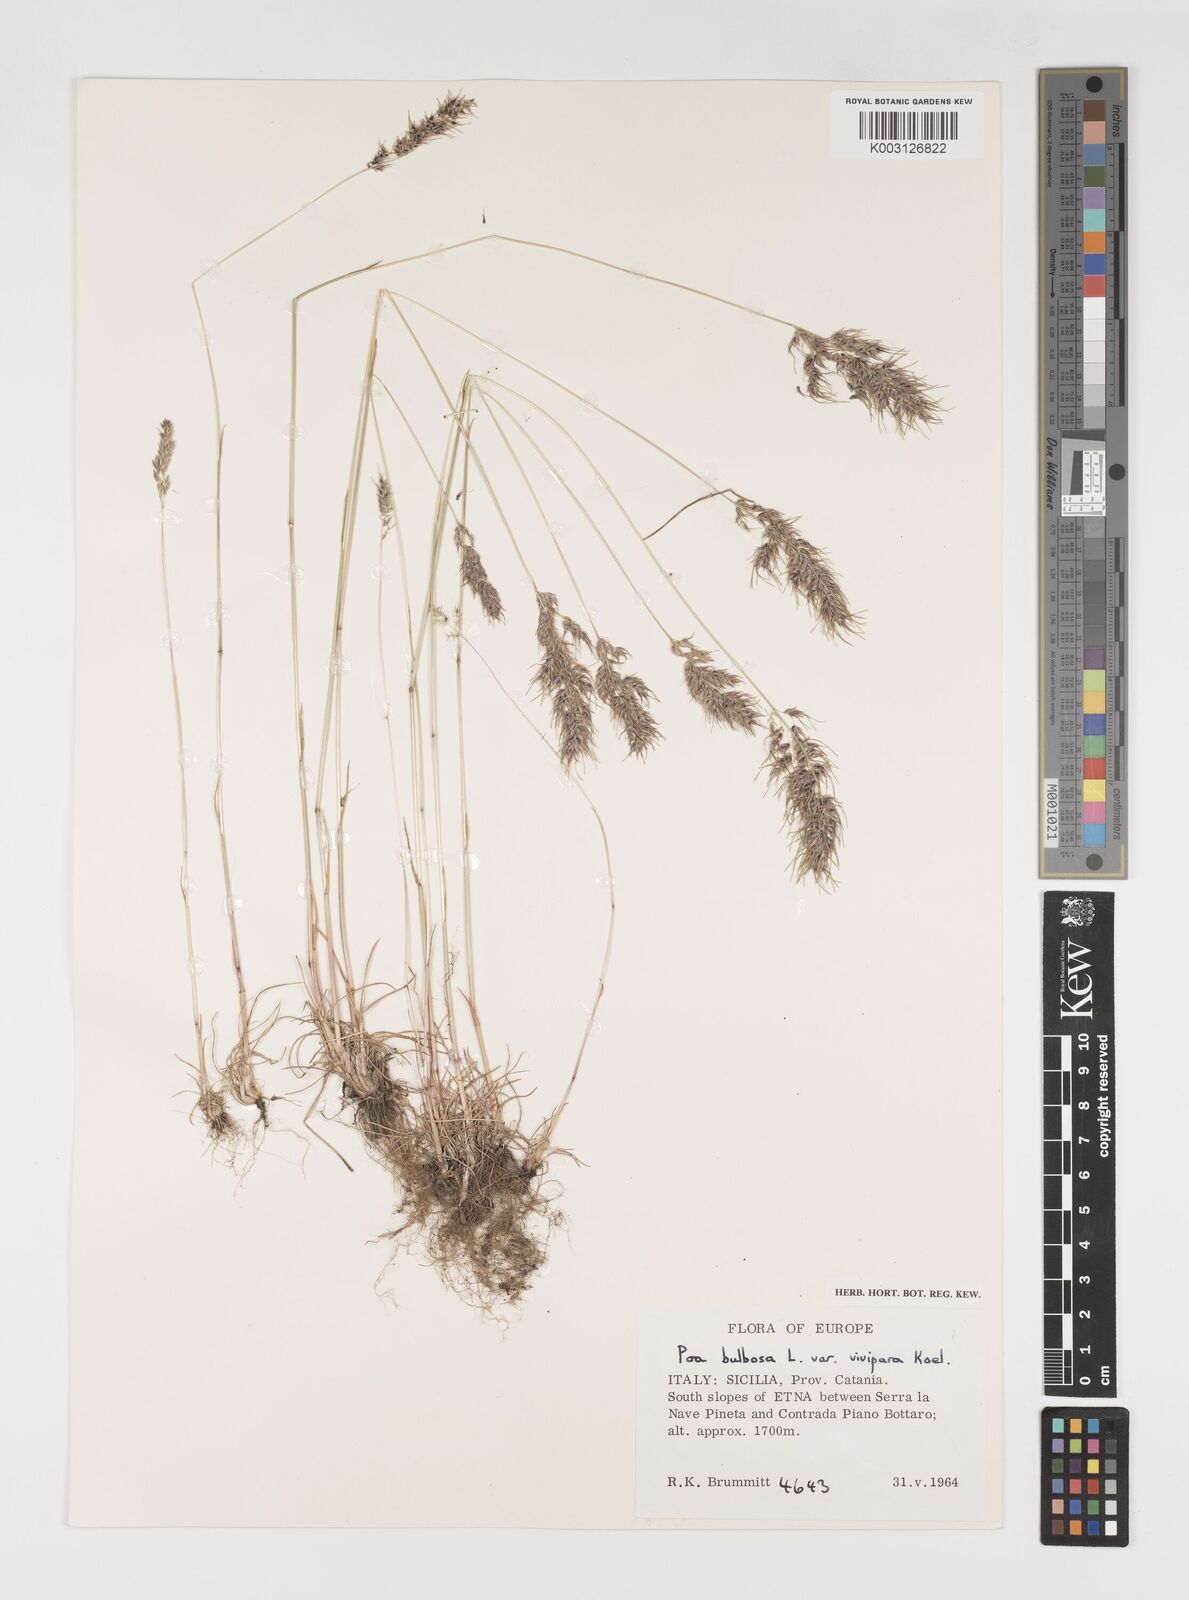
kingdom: Plantae
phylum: Tracheophyta
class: Liliopsida
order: Poales
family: Poaceae
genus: Poa
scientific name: Poa bulbosa
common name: Bulbous bluegrass
